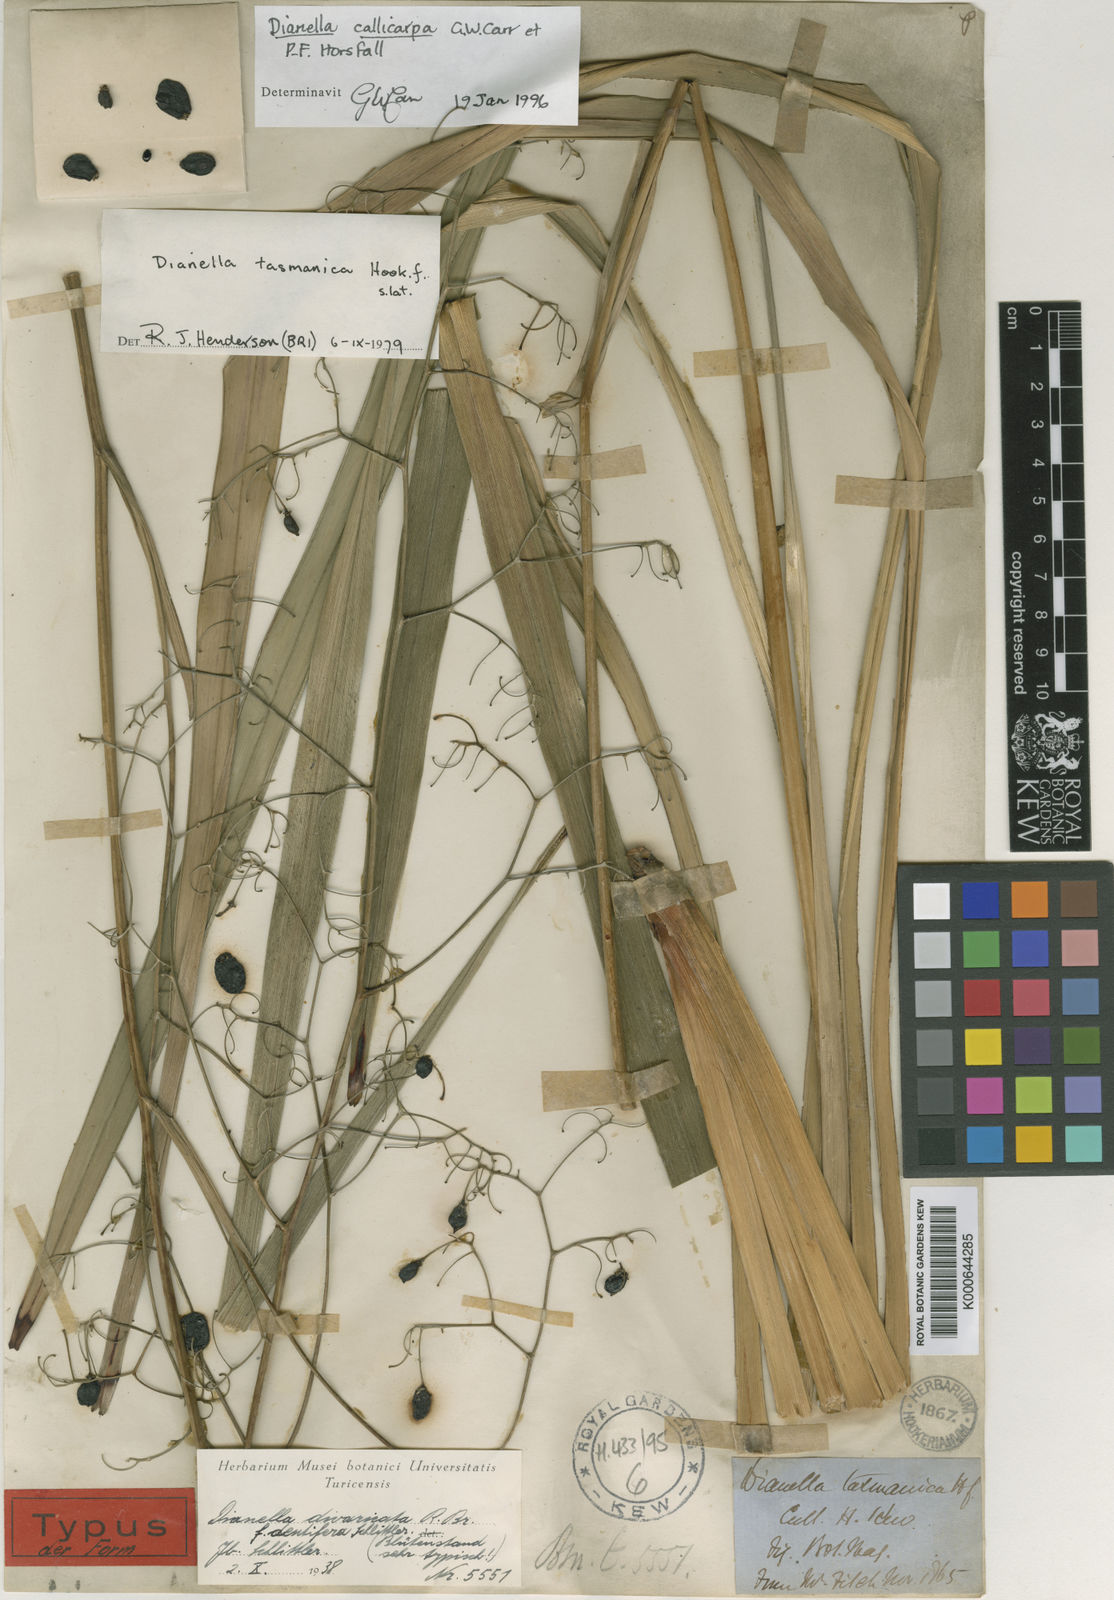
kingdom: Plantae
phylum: Tracheophyta
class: Liliopsida
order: Asparagales
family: Asphodelaceae
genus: Dianella
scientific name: Dianella tasmanica
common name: Tasman flax-lily
